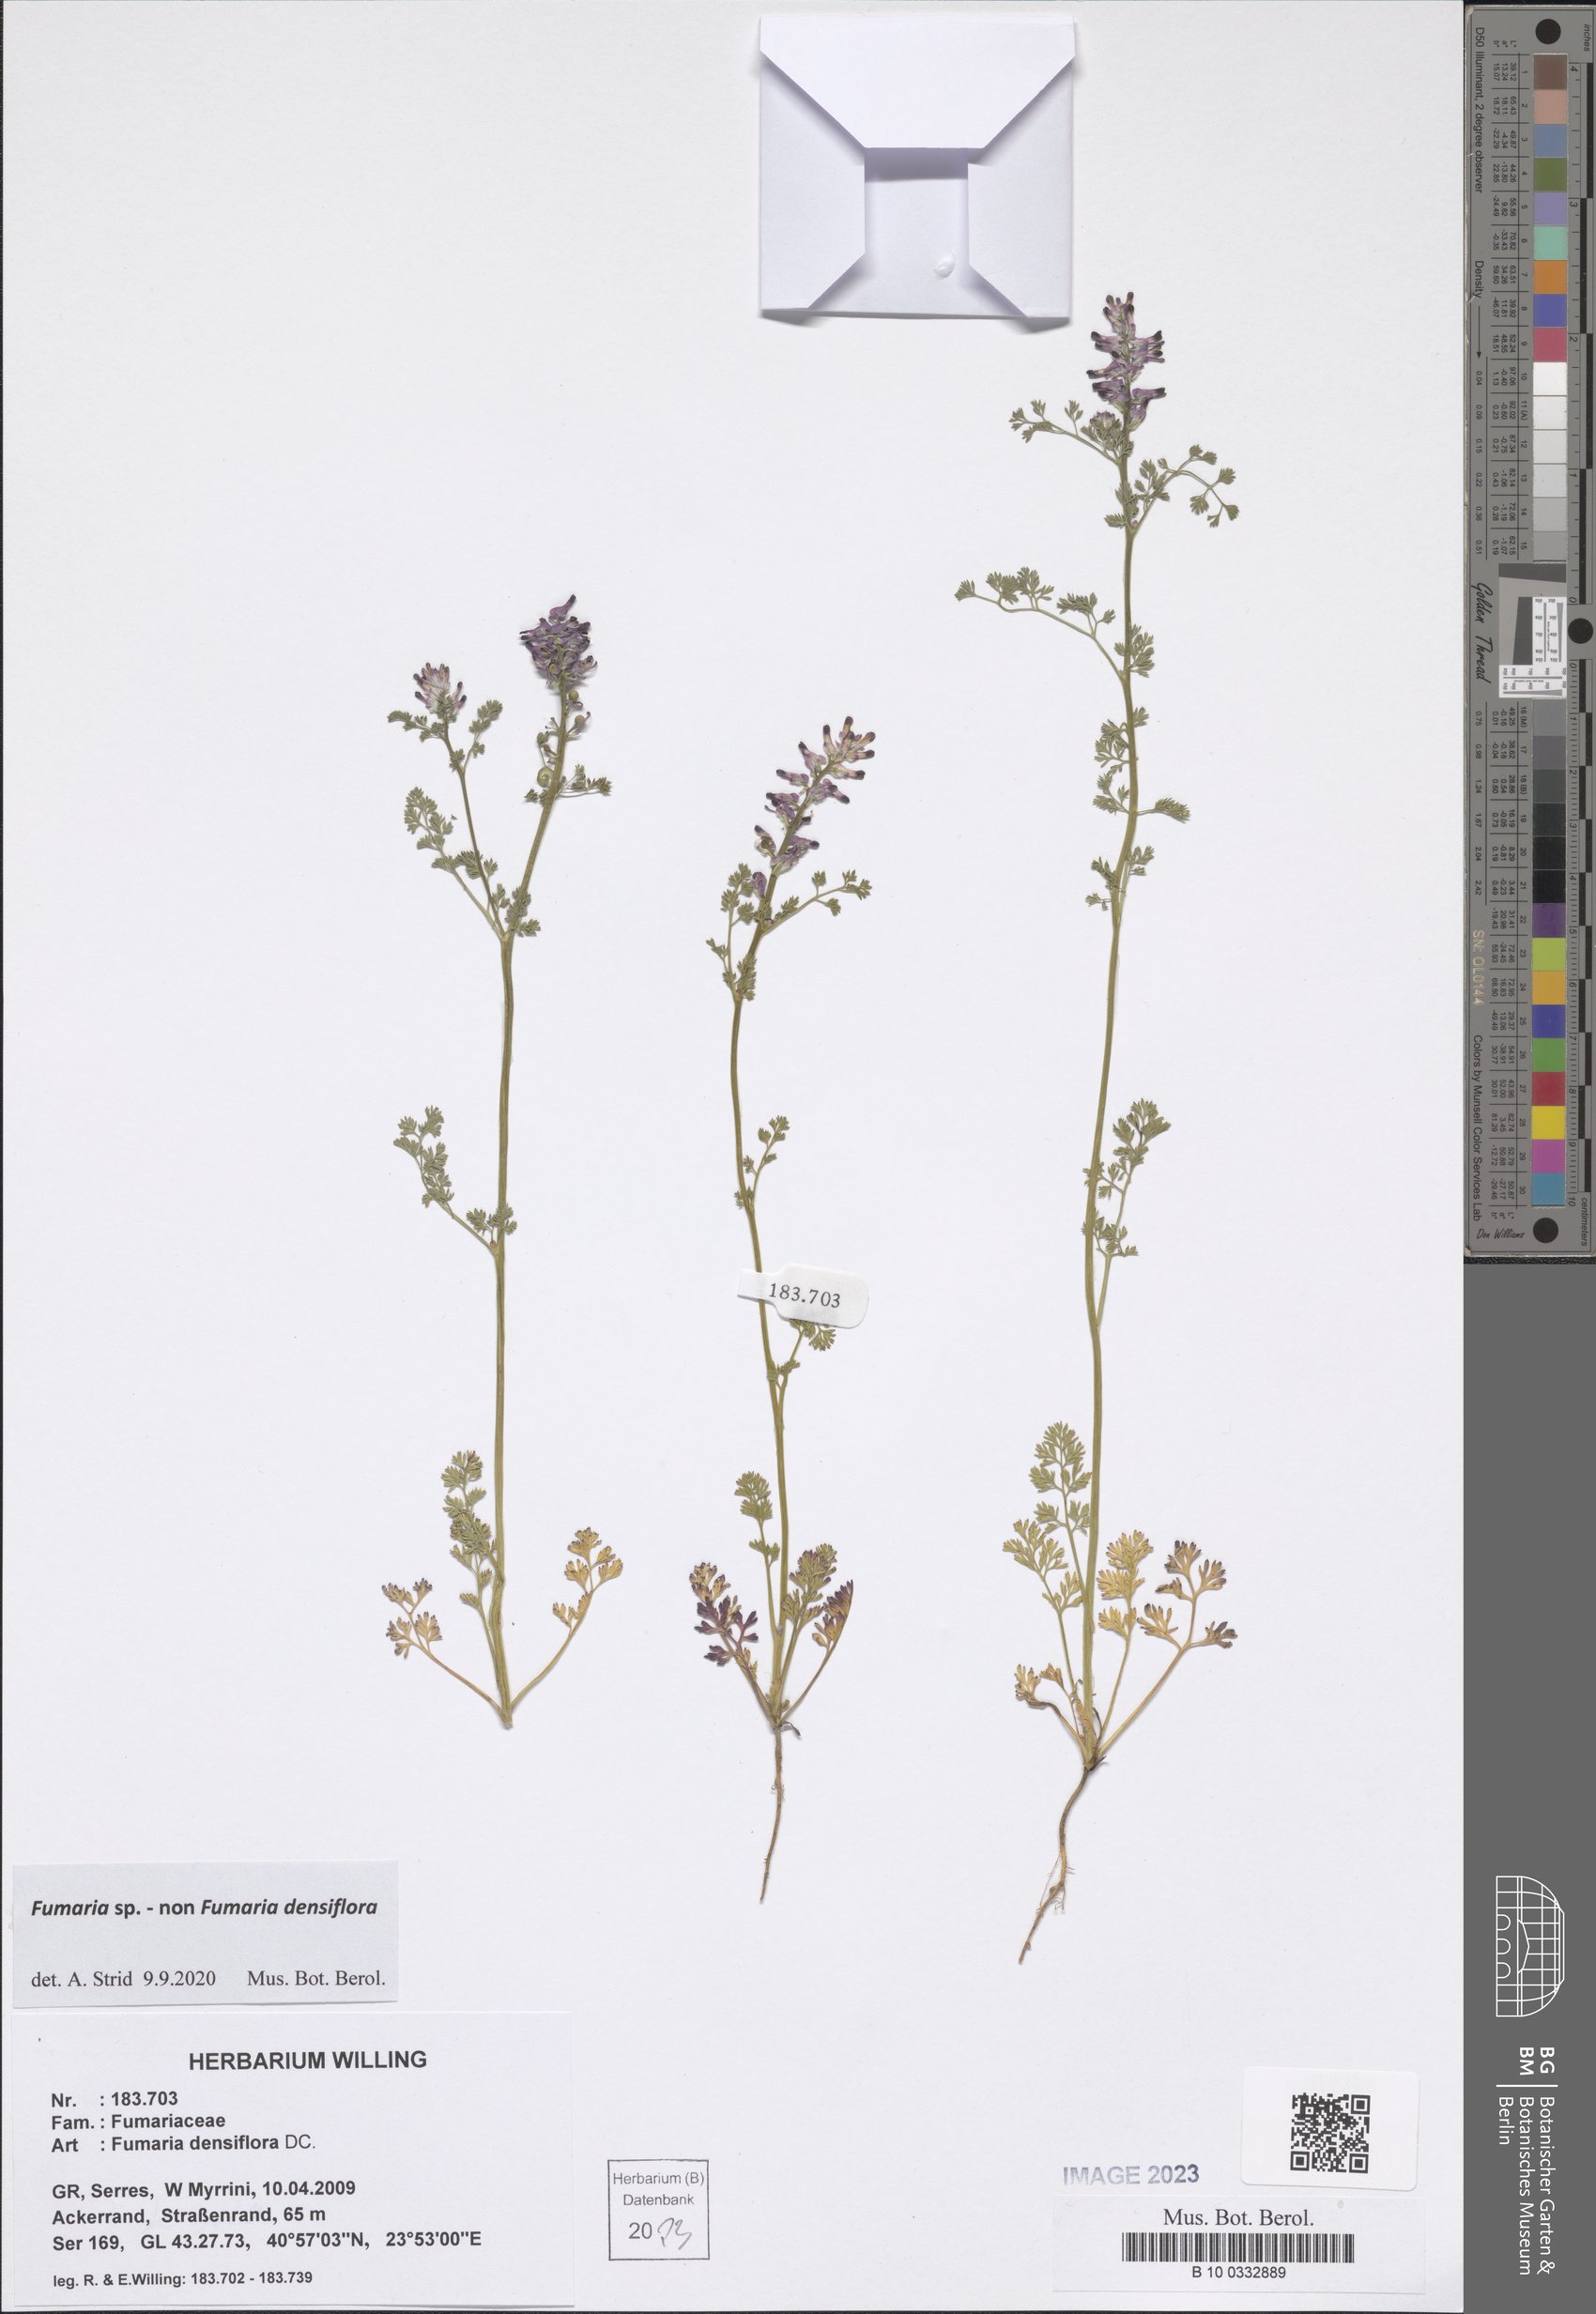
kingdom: Plantae
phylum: Tracheophyta
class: Magnoliopsida
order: Ranunculales
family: Papaveraceae
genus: Fumaria
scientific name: Fumaria
